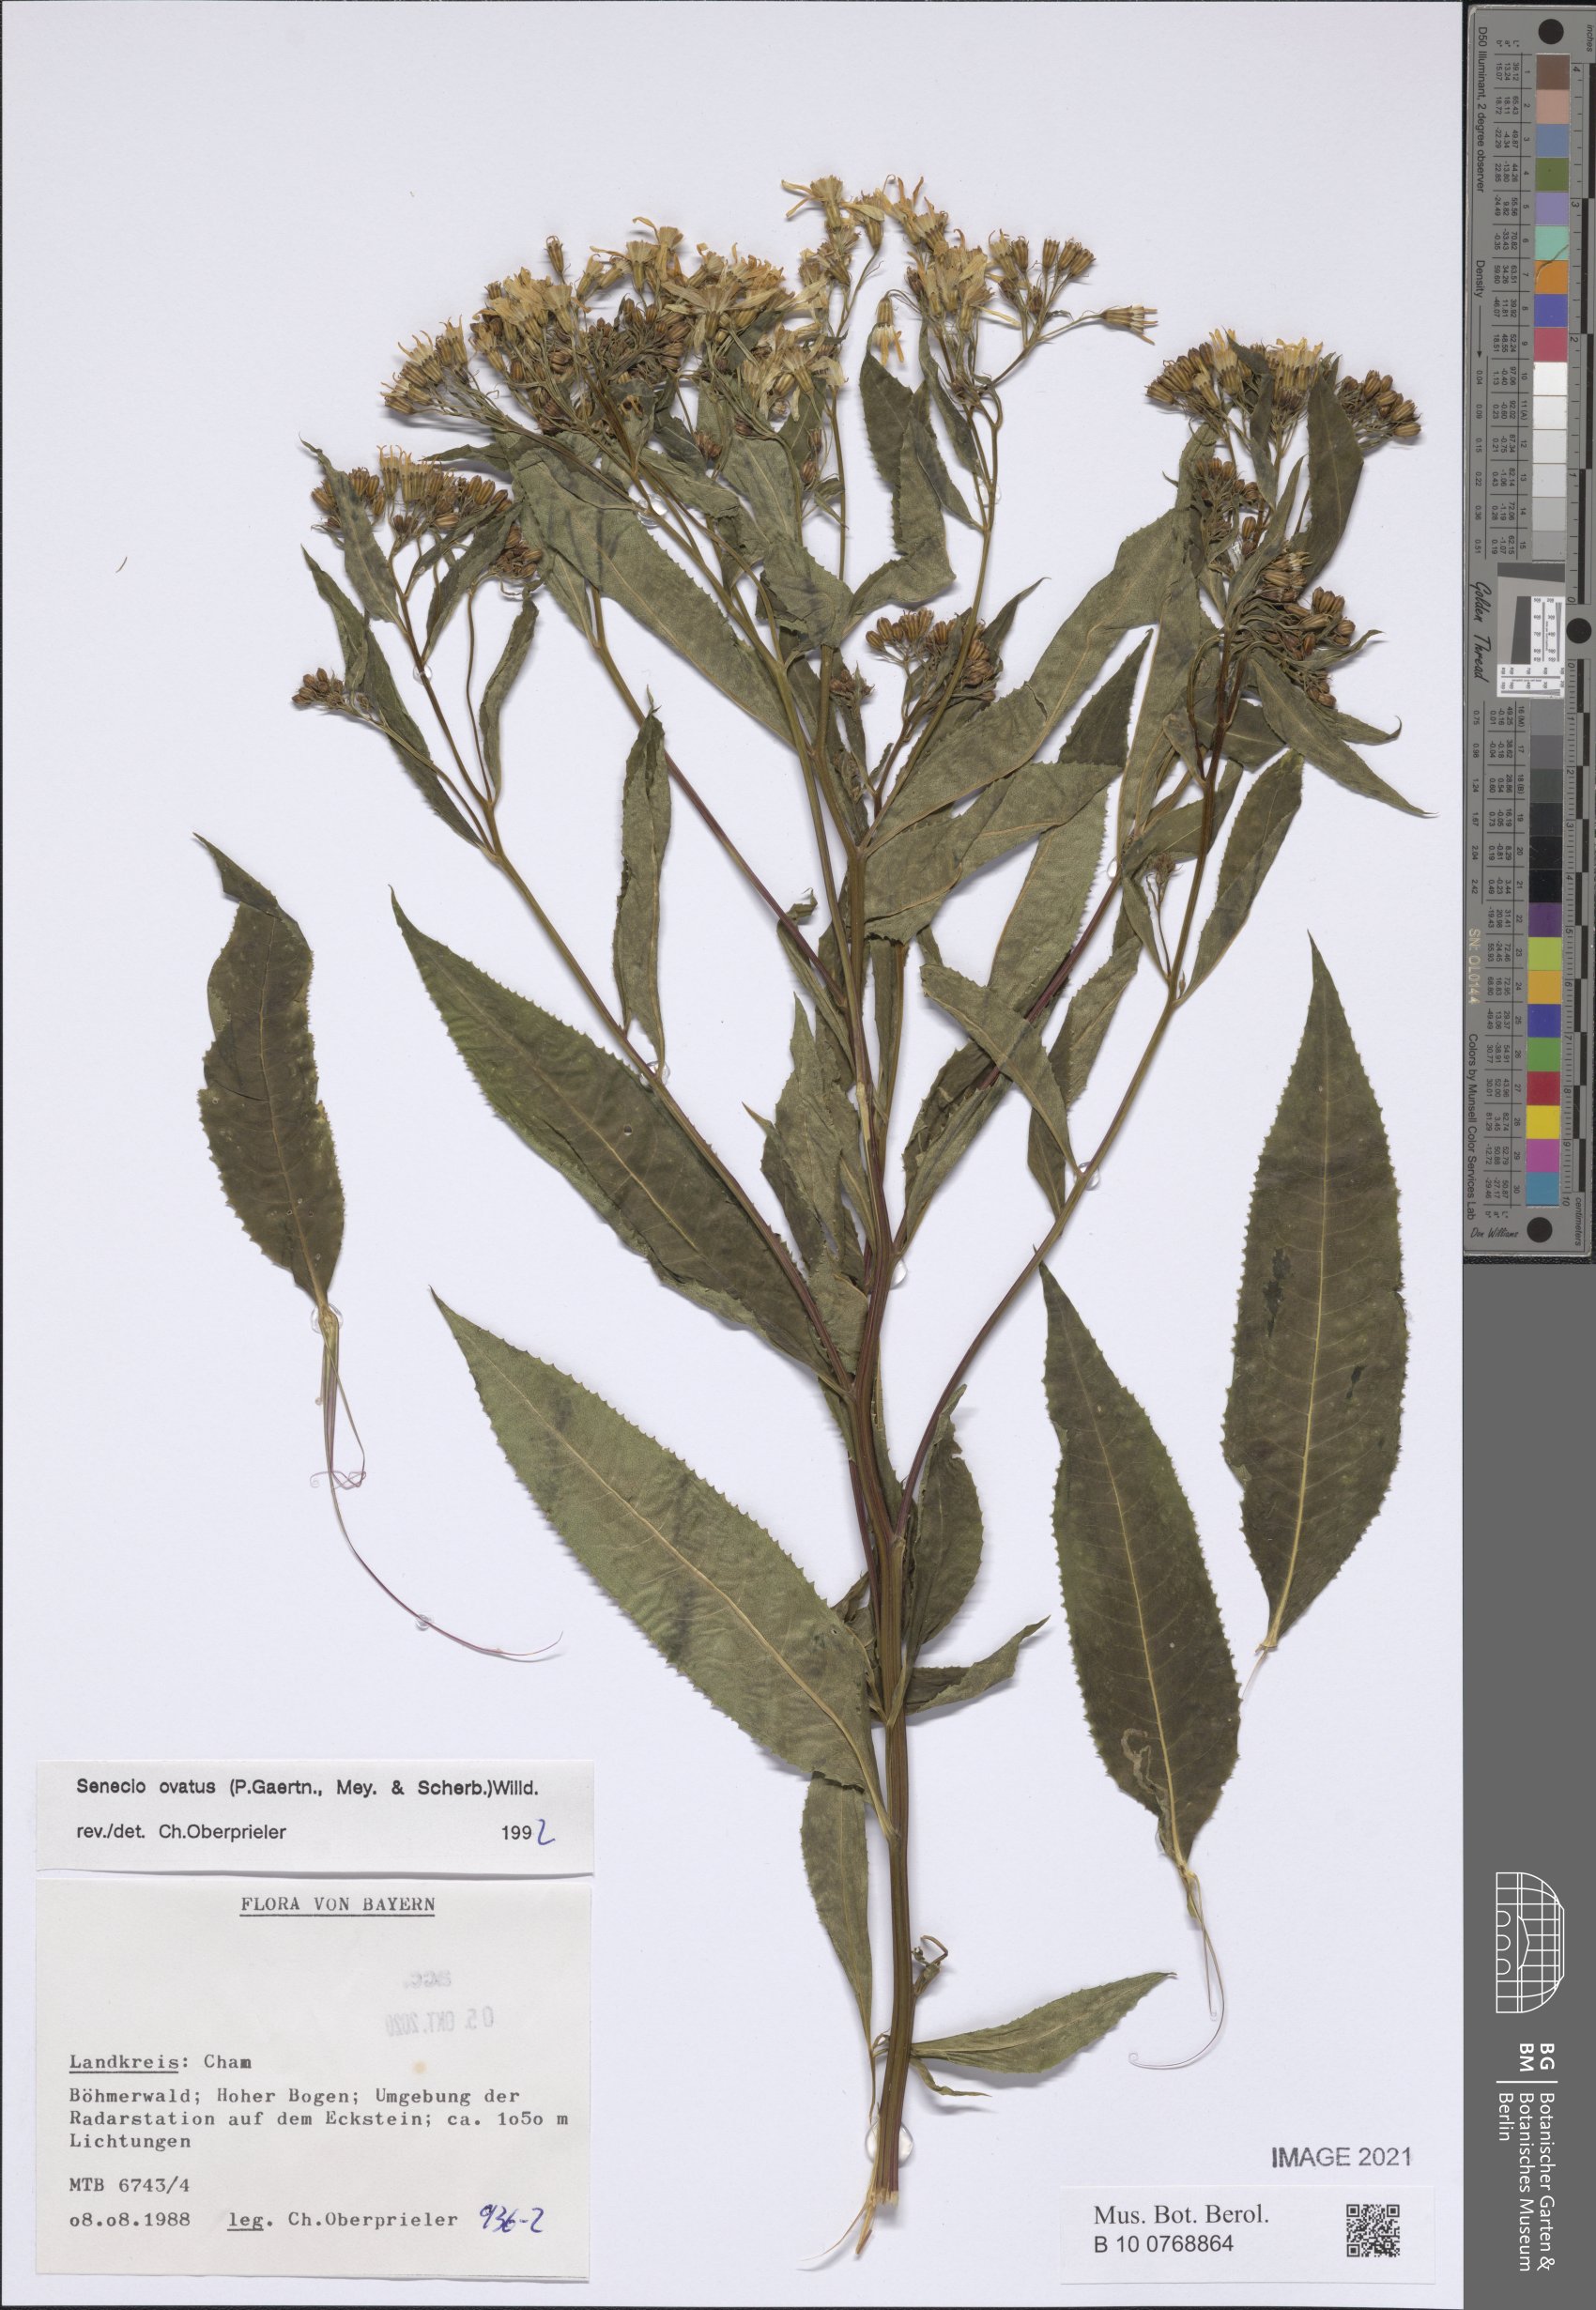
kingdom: Plantae
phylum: Tracheophyta
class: Magnoliopsida
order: Asterales
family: Asteraceae
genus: Senecio
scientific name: Senecio ovatus
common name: Wood ragwort
